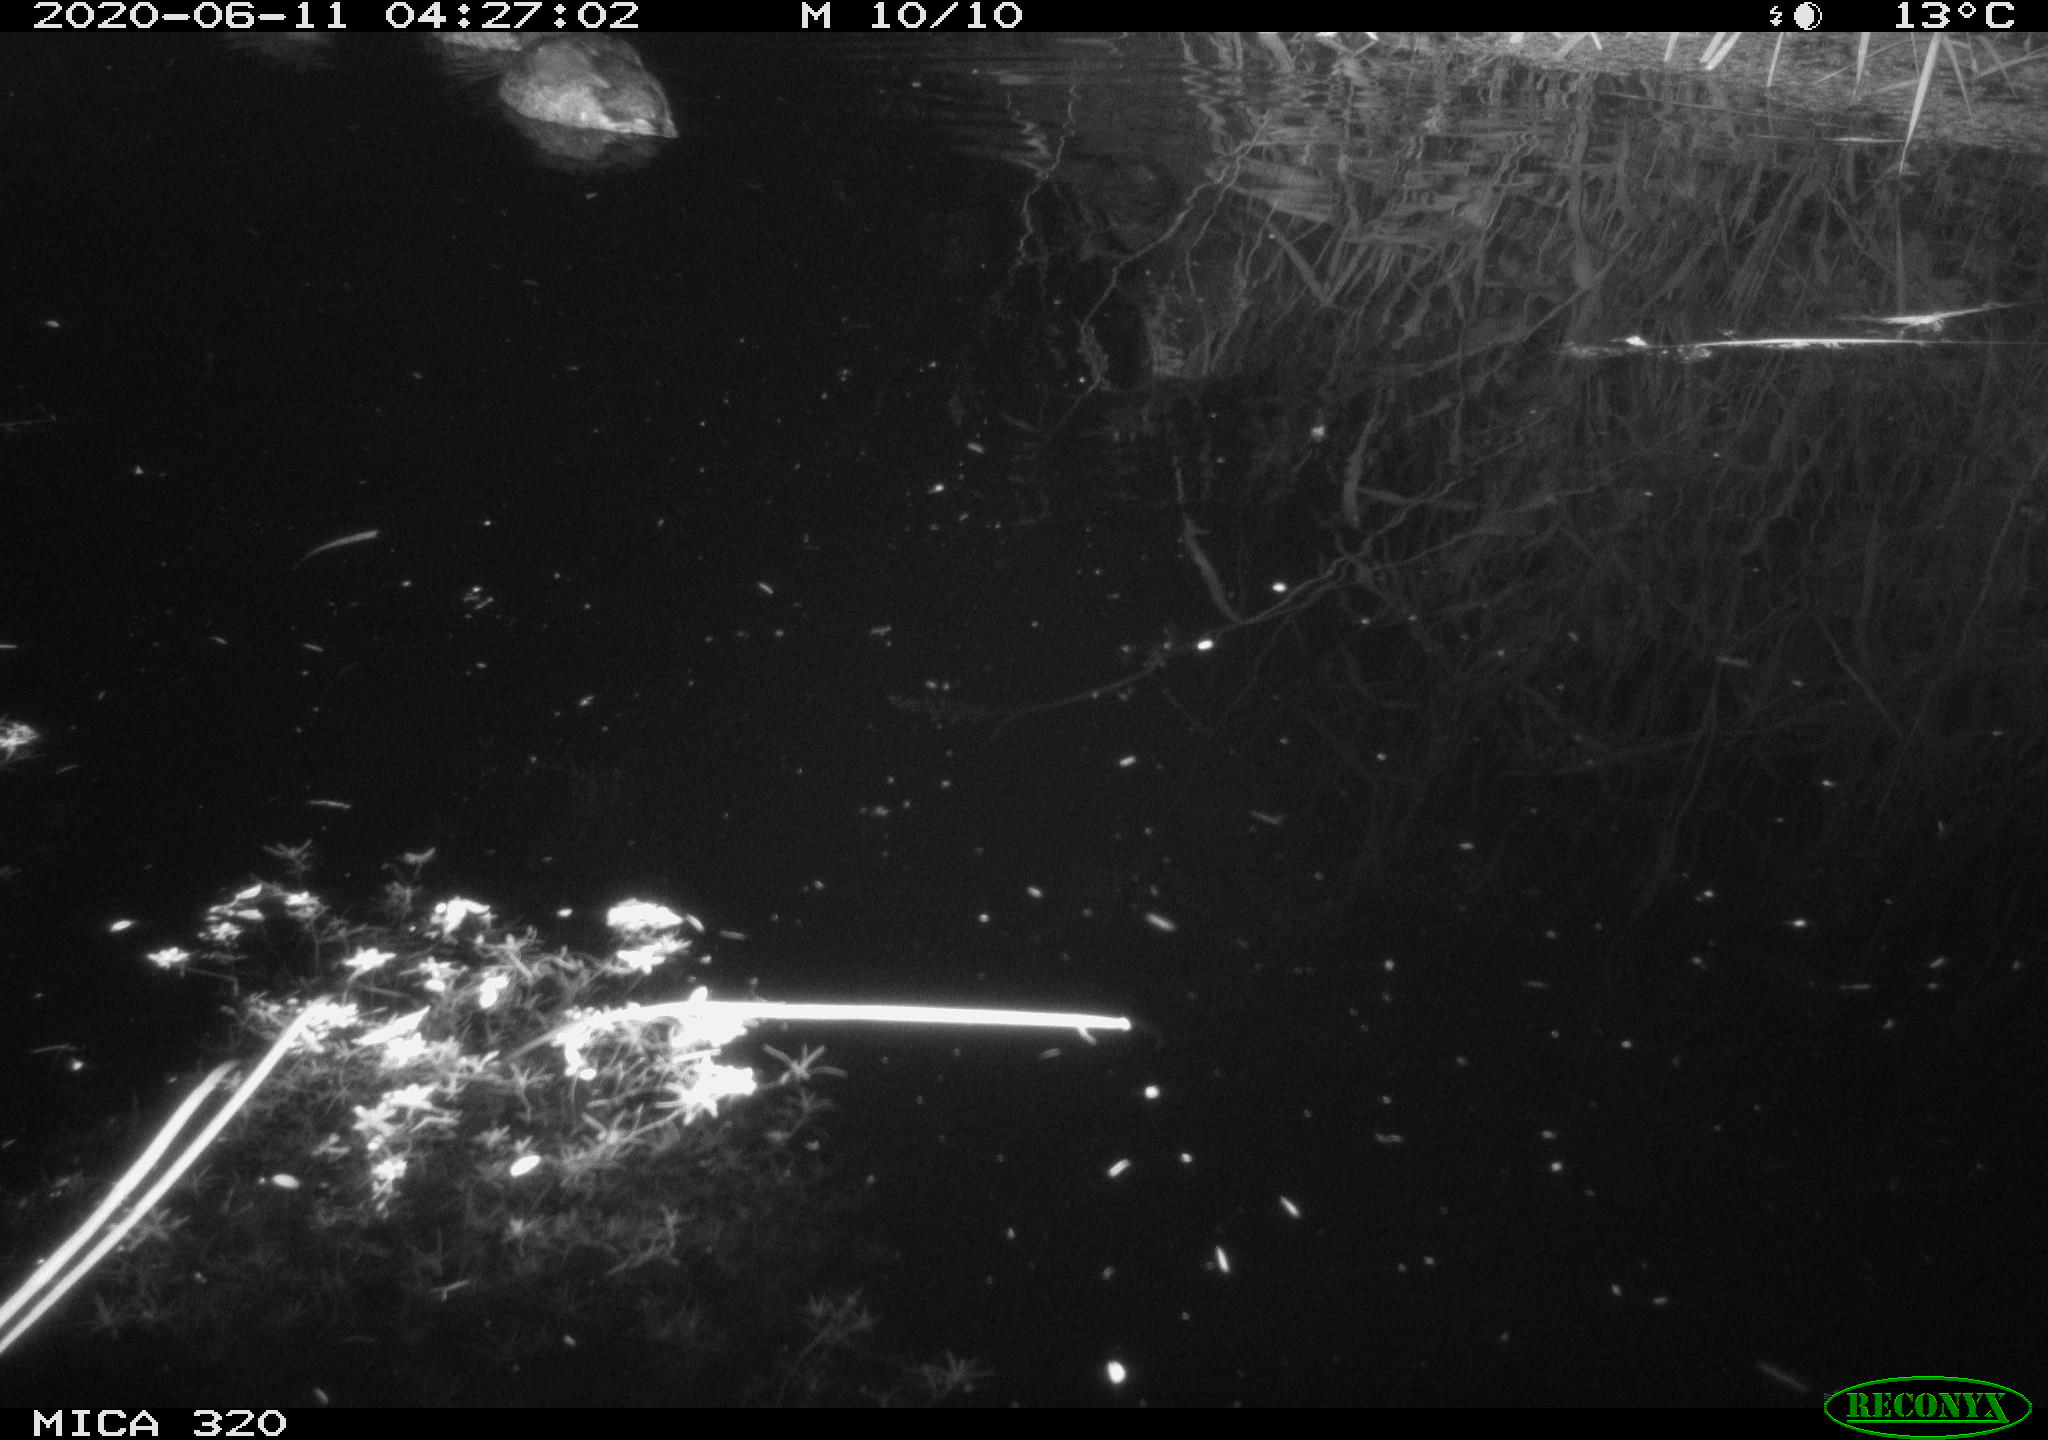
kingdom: Animalia
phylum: Chordata
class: Aves
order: Anseriformes
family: Anatidae
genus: Anas
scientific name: Anas platyrhynchos
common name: Mallard
